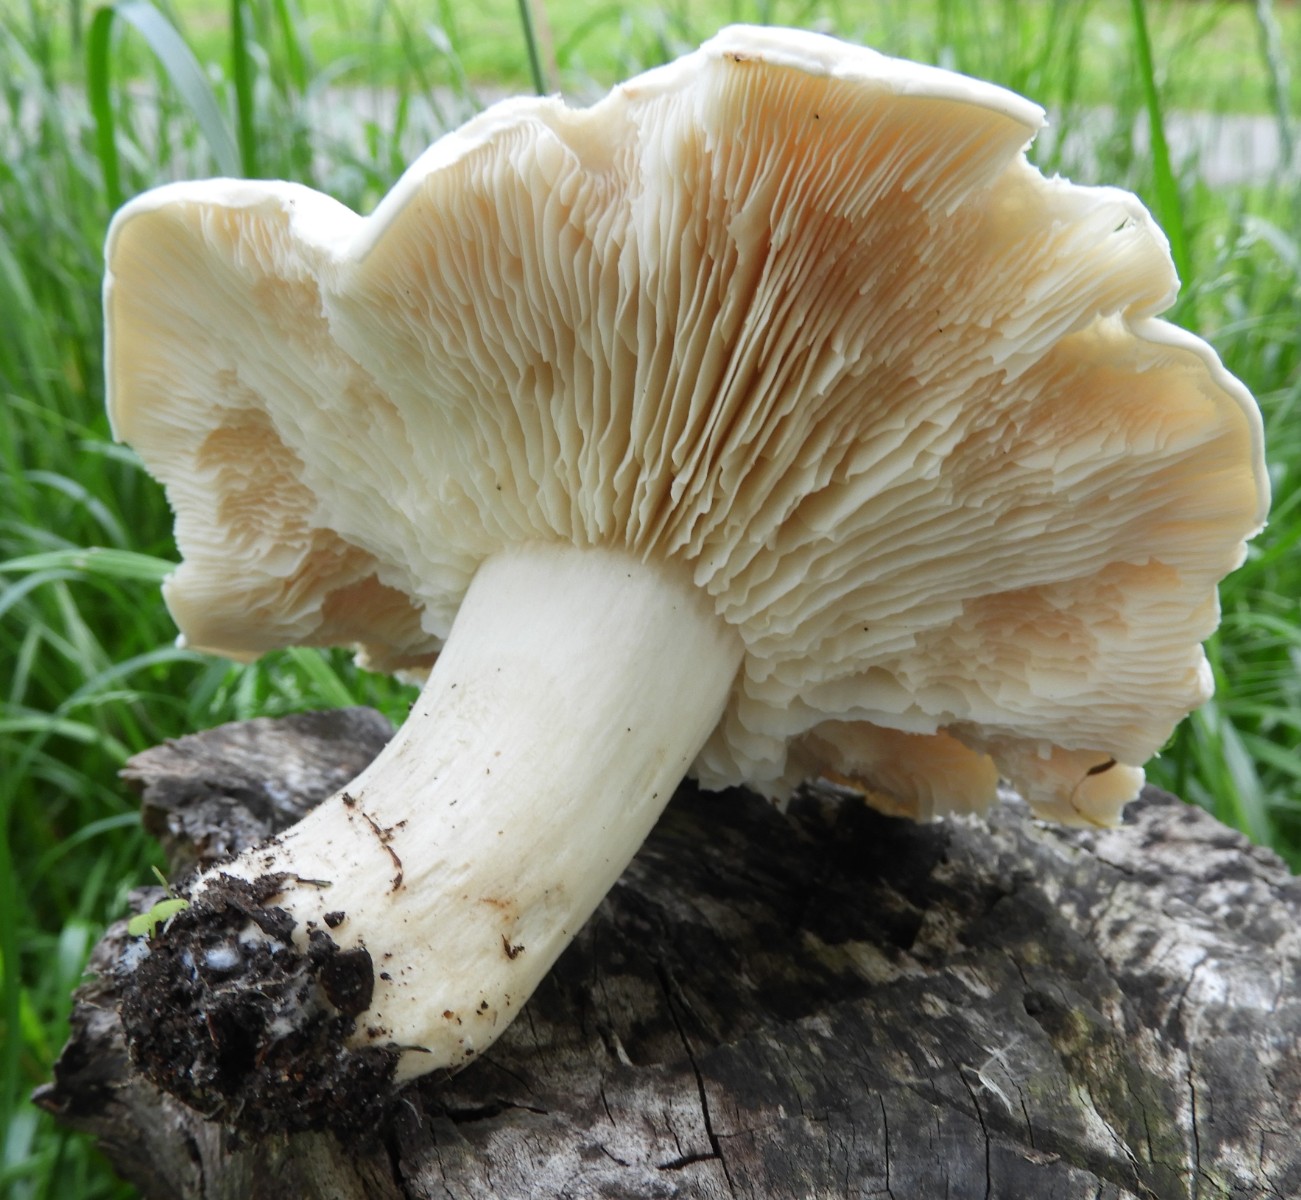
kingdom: Fungi
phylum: Basidiomycota
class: Agaricomycetes
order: Agaricales
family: Lyophyllaceae
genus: Calocybe
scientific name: Calocybe gambosa
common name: vårmusseron
